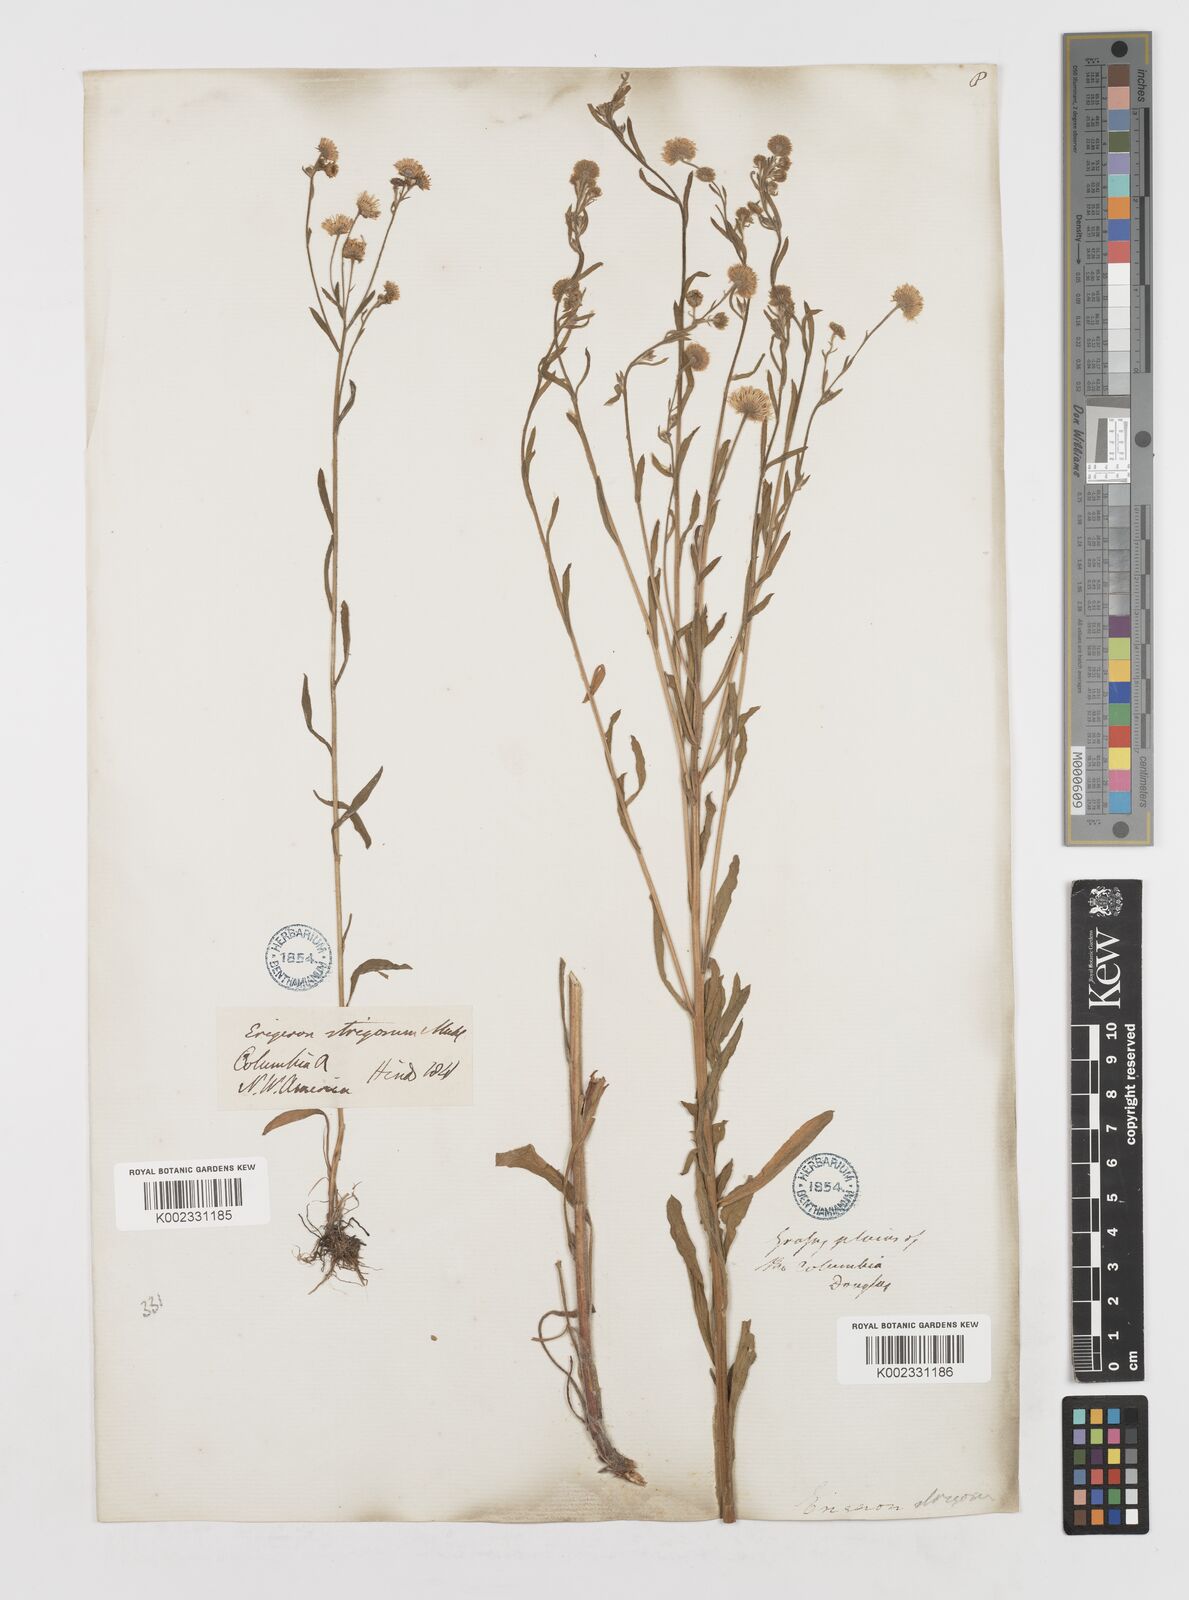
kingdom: Plantae
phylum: Tracheophyta
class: Magnoliopsida
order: Asterales
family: Asteraceae
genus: Erigeron
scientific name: Erigeron
